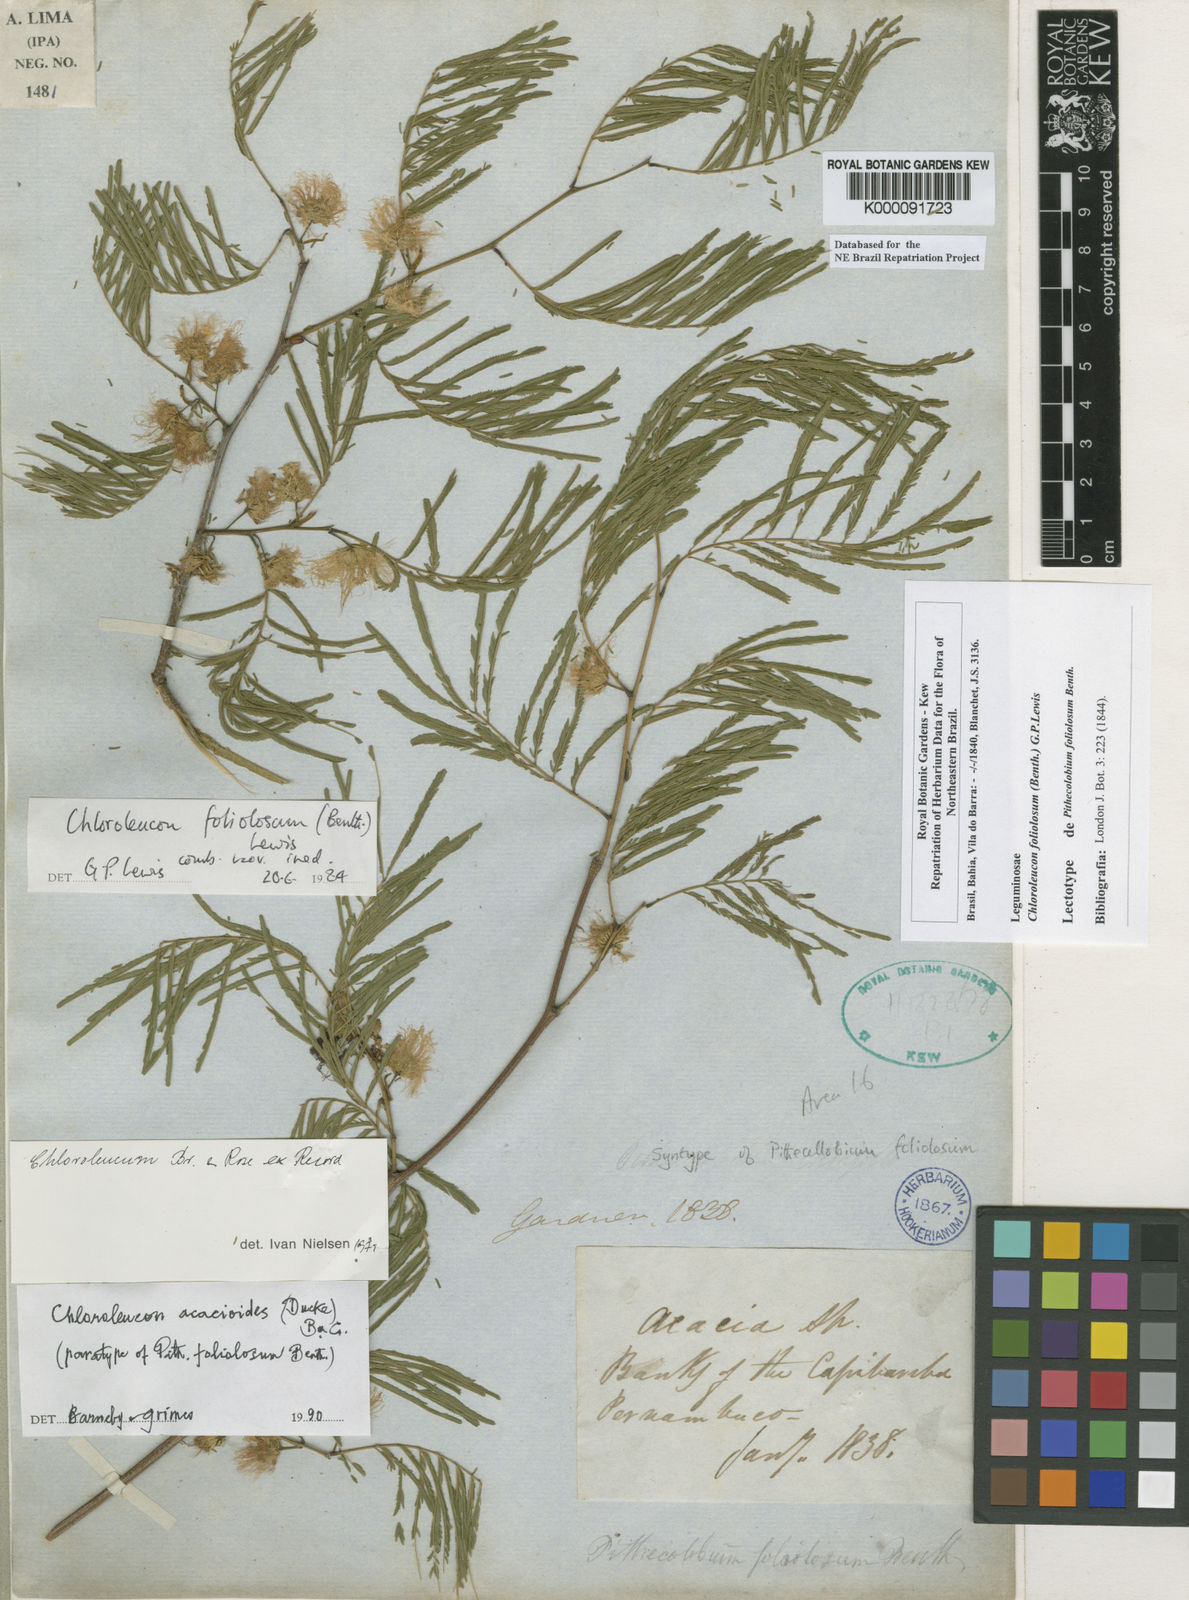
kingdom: Plantae
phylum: Tracheophyta
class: Magnoliopsida
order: Fabales
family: Fabaceae
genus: Chloroleucon
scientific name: Chloroleucon foliolosum
